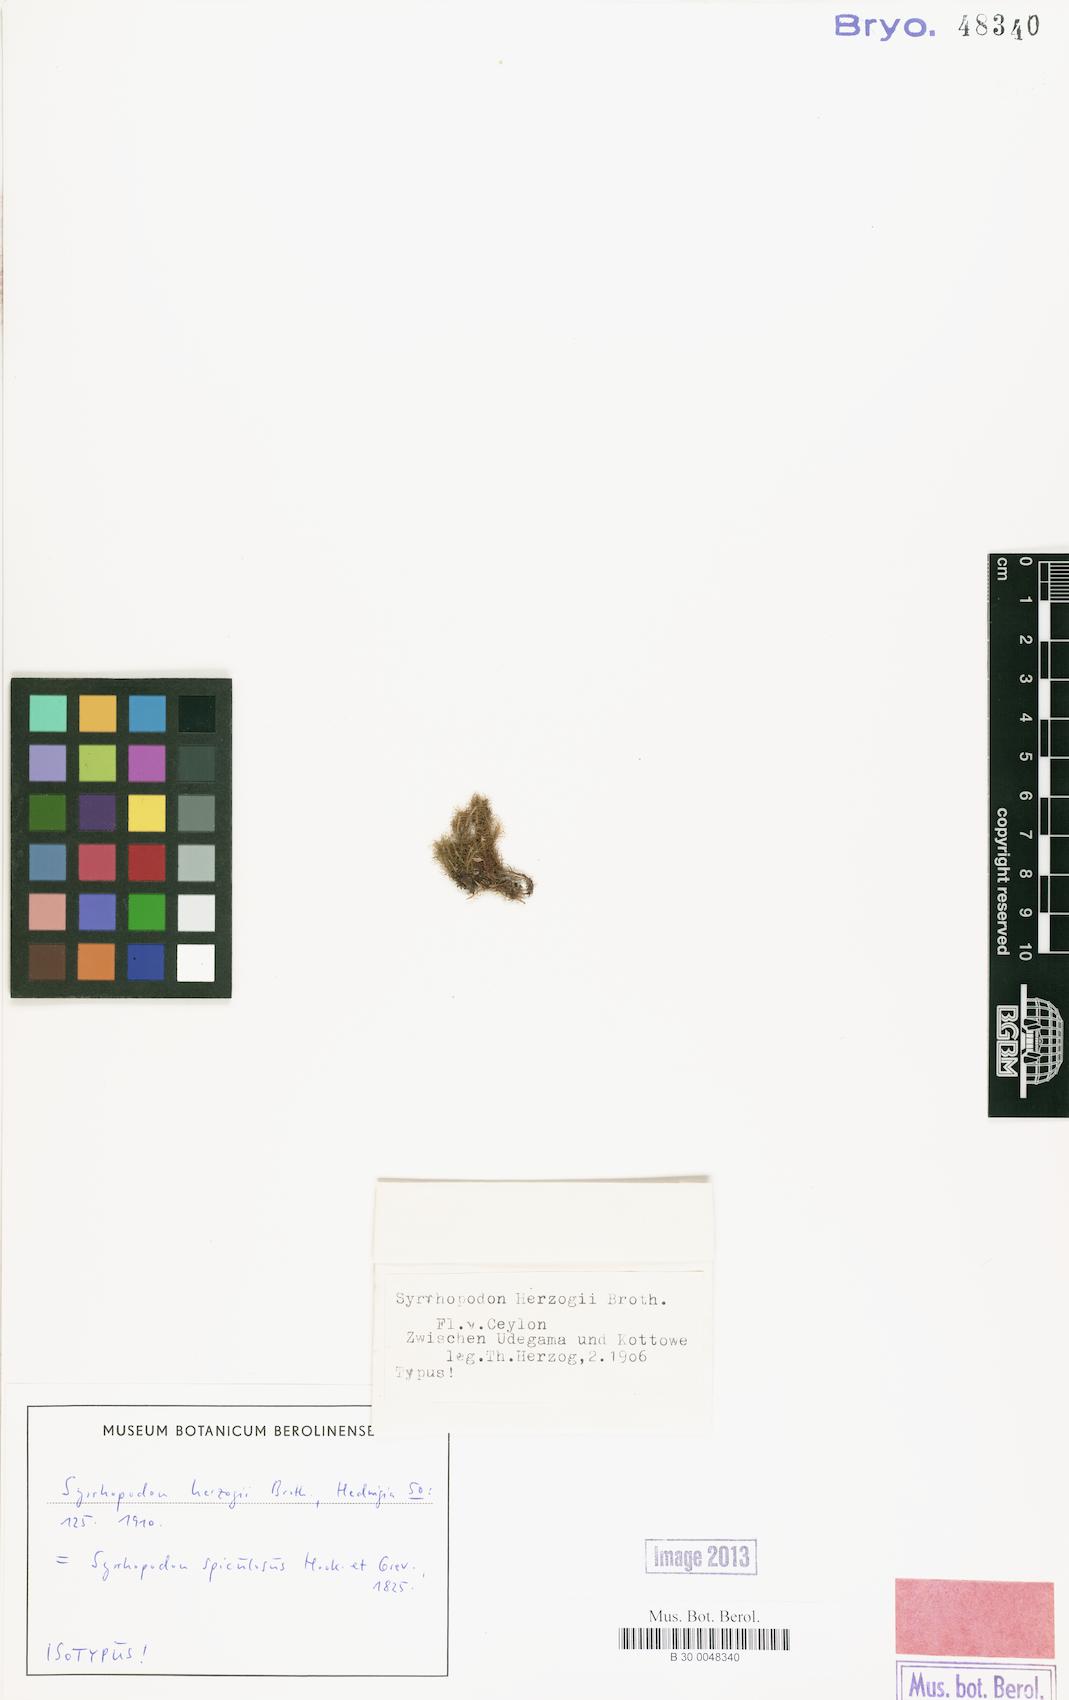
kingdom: Plantae
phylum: Bryophyta
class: Bryopsida
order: Dicranales
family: Calymperaceae
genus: Syrrhopodon
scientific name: Syrrhopodon spiculosus
